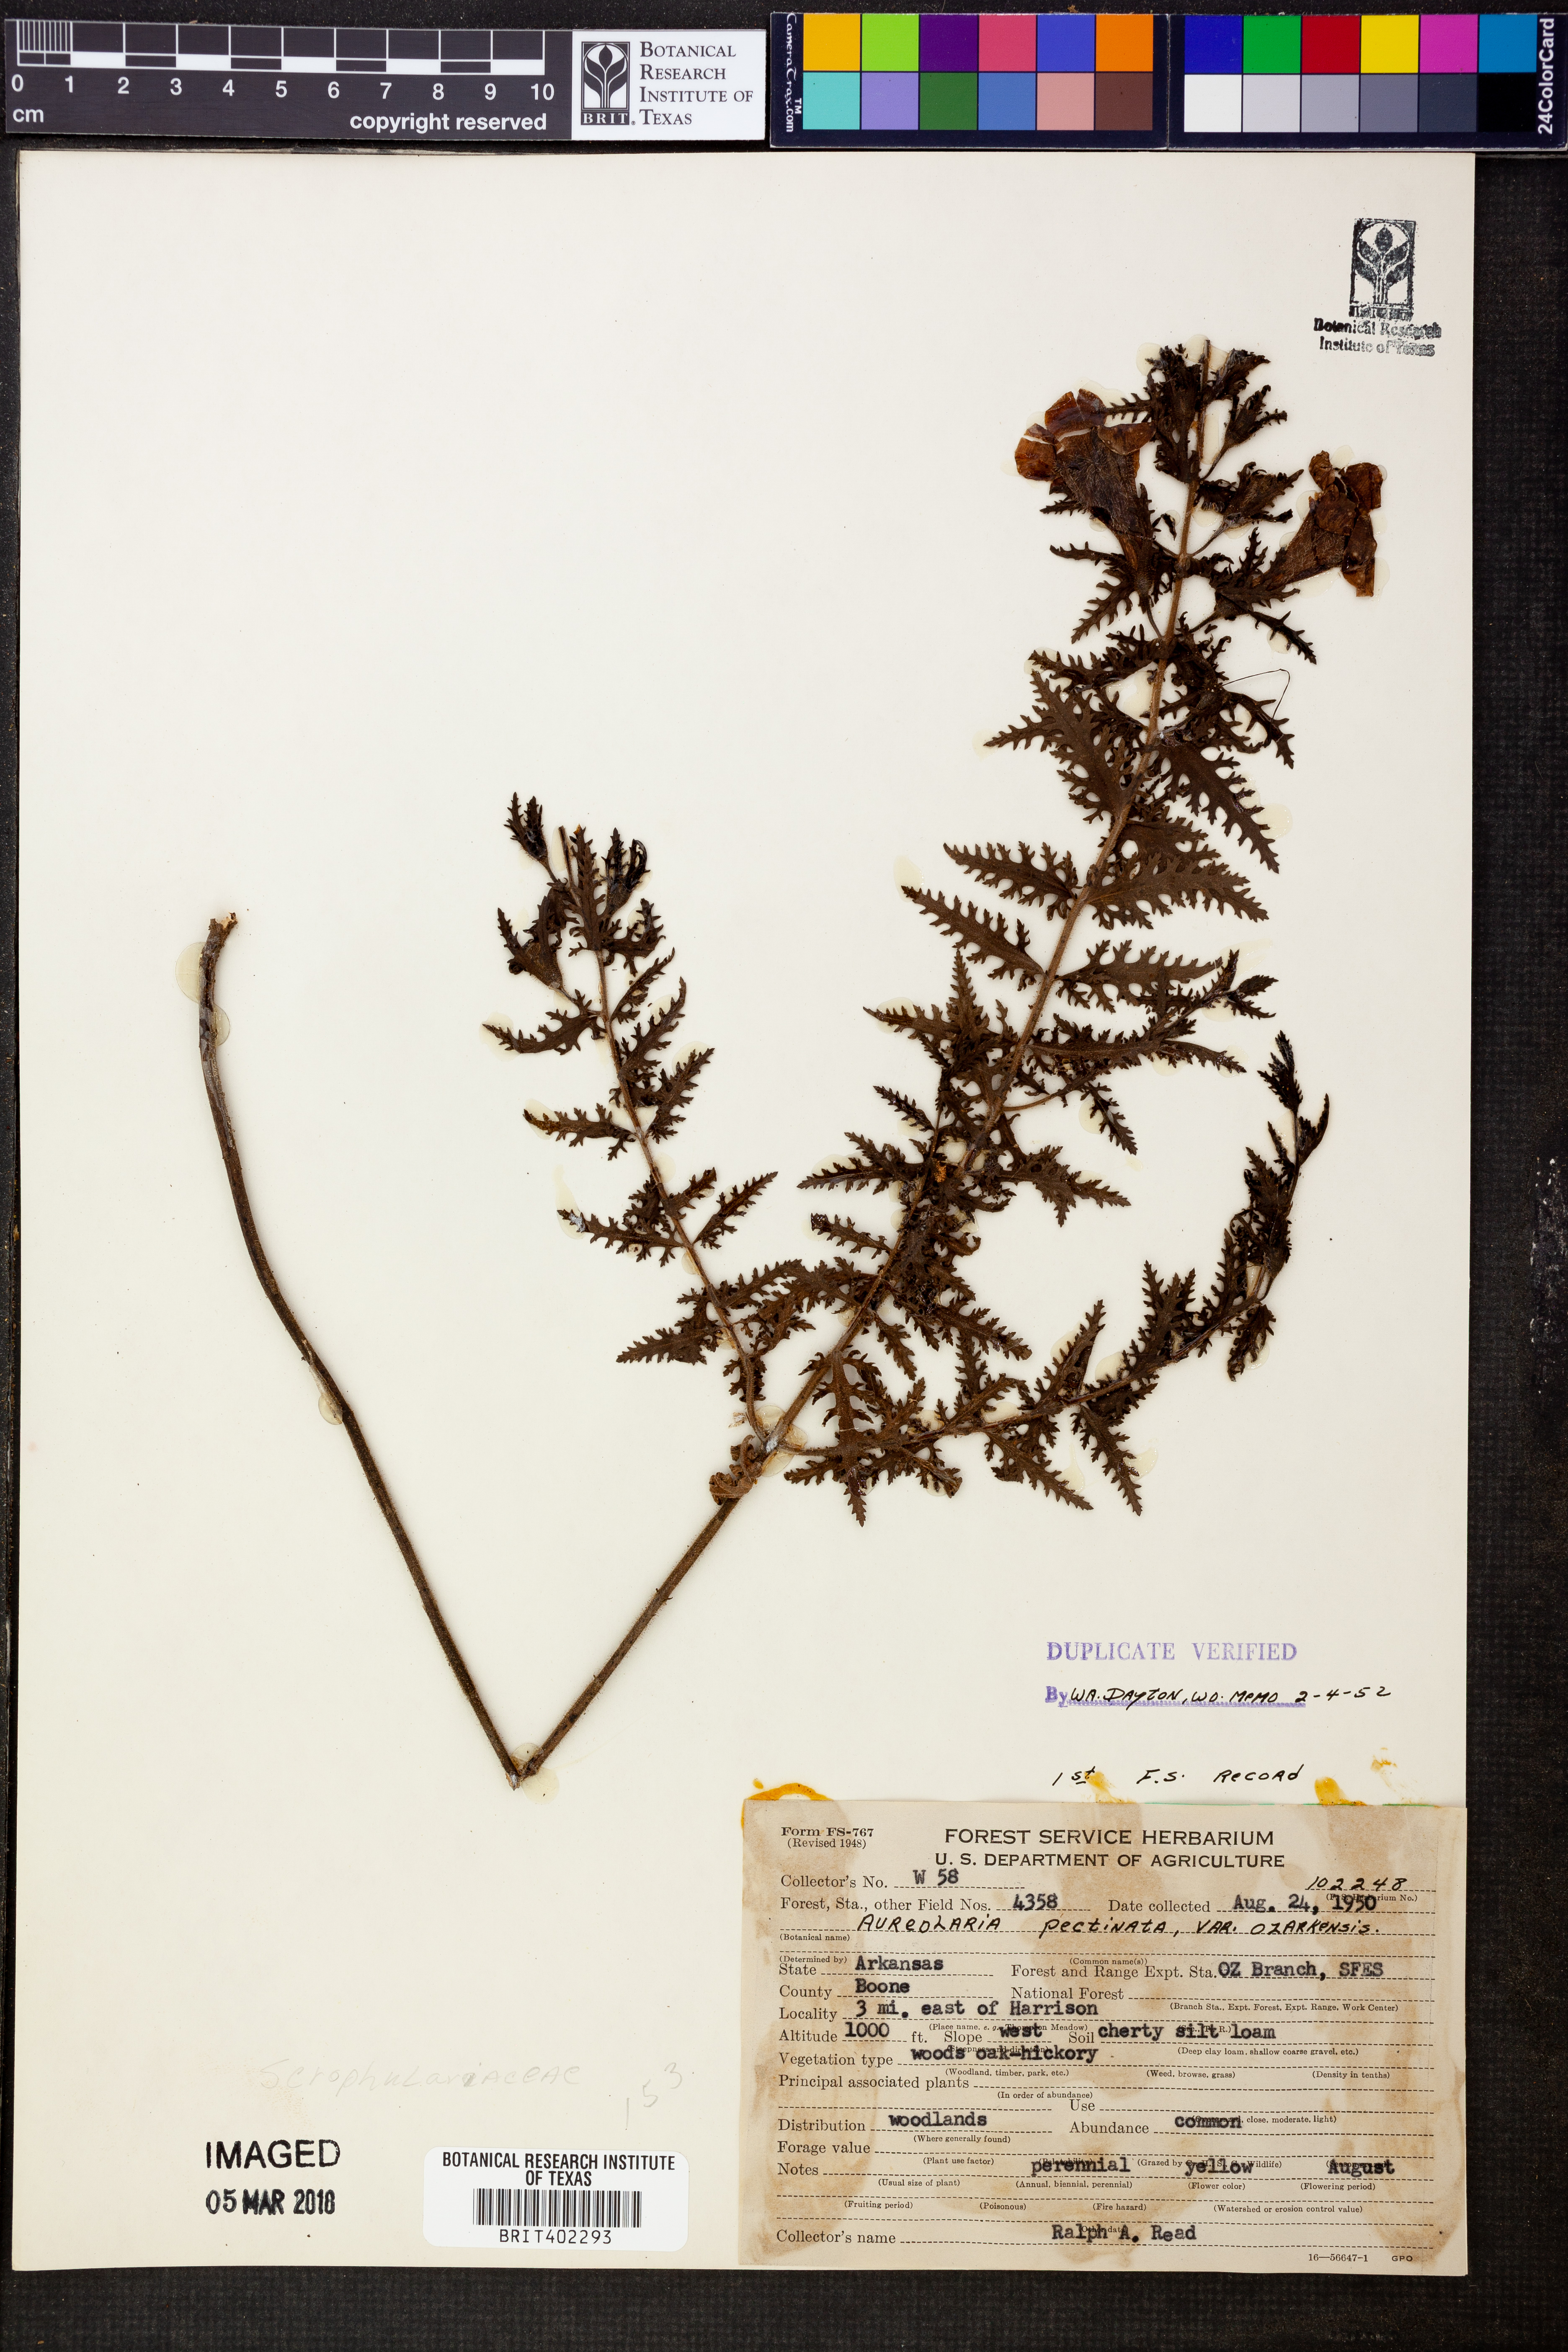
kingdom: Plantae
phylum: Tracheophyta
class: Magnoliopsida
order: Lamiales
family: Orobanchaceae
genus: Aureolaria
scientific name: Aureolaria pectinata
